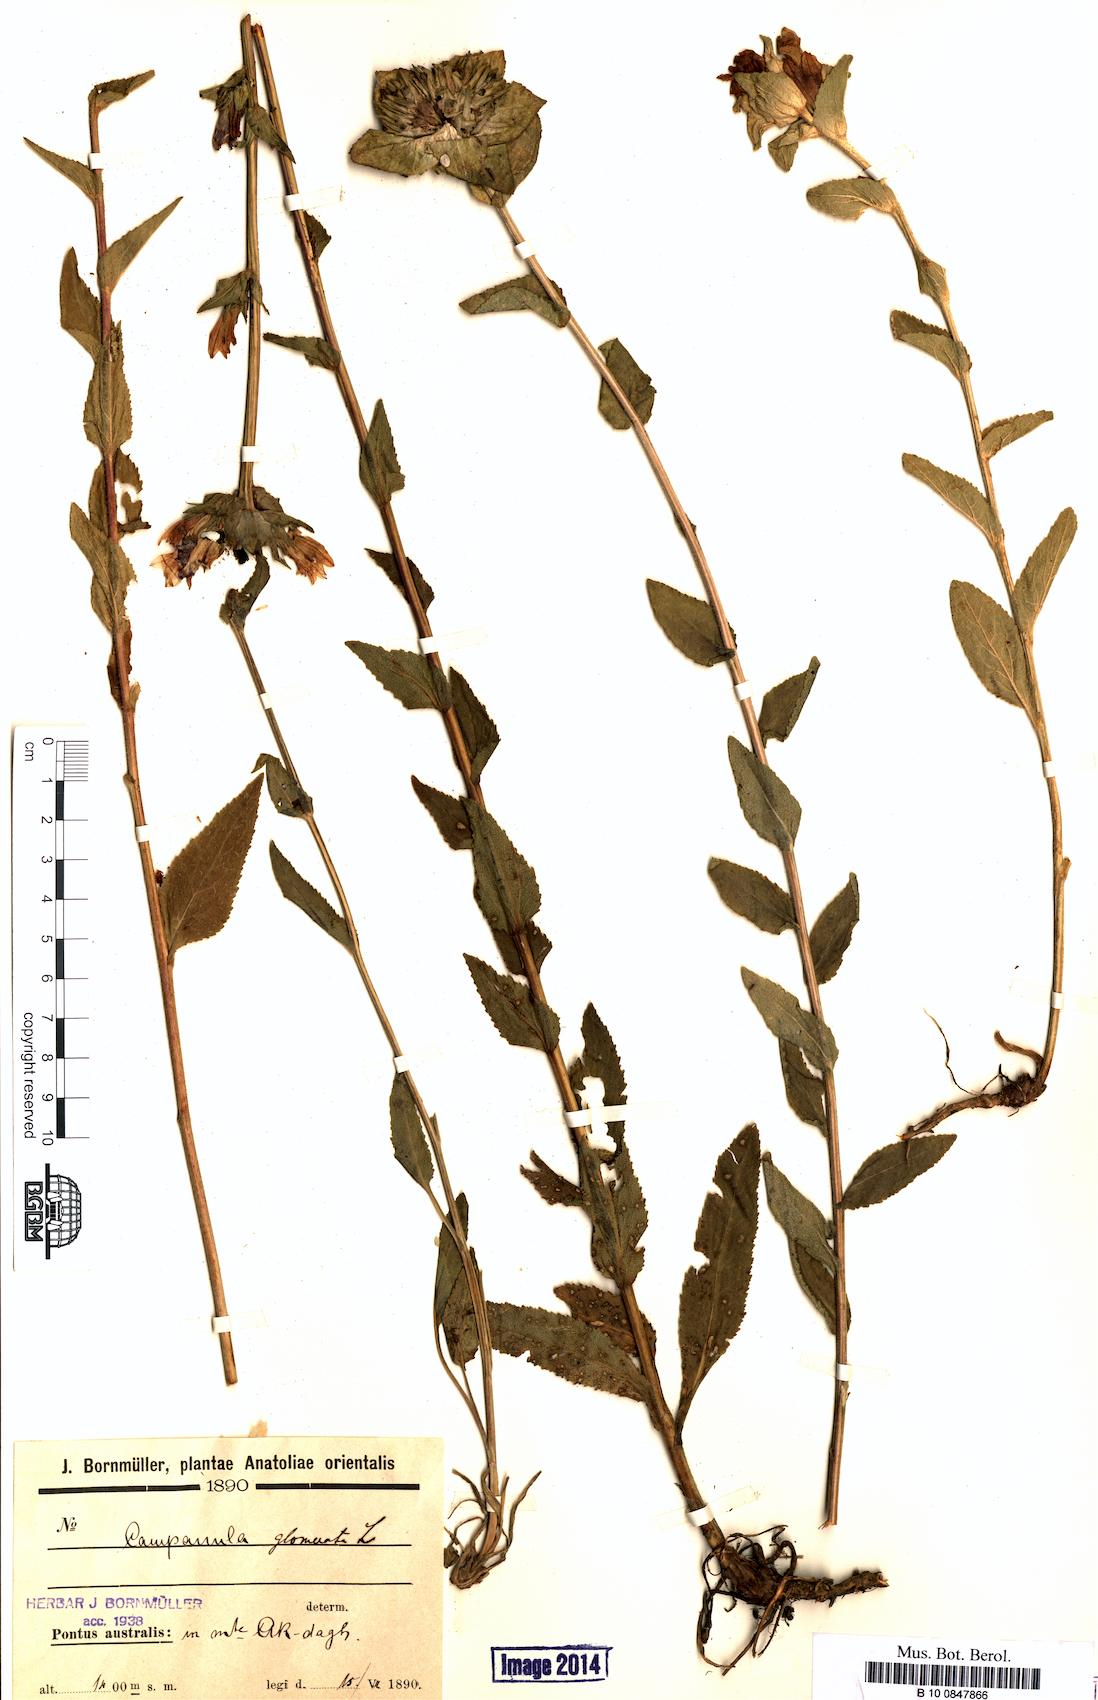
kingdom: Plantae
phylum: Tracheophyta
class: Magnoliopsida
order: Asterales
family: Campanulaceae
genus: Campanula
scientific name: Campanula glomerata
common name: Clustered bellflower
